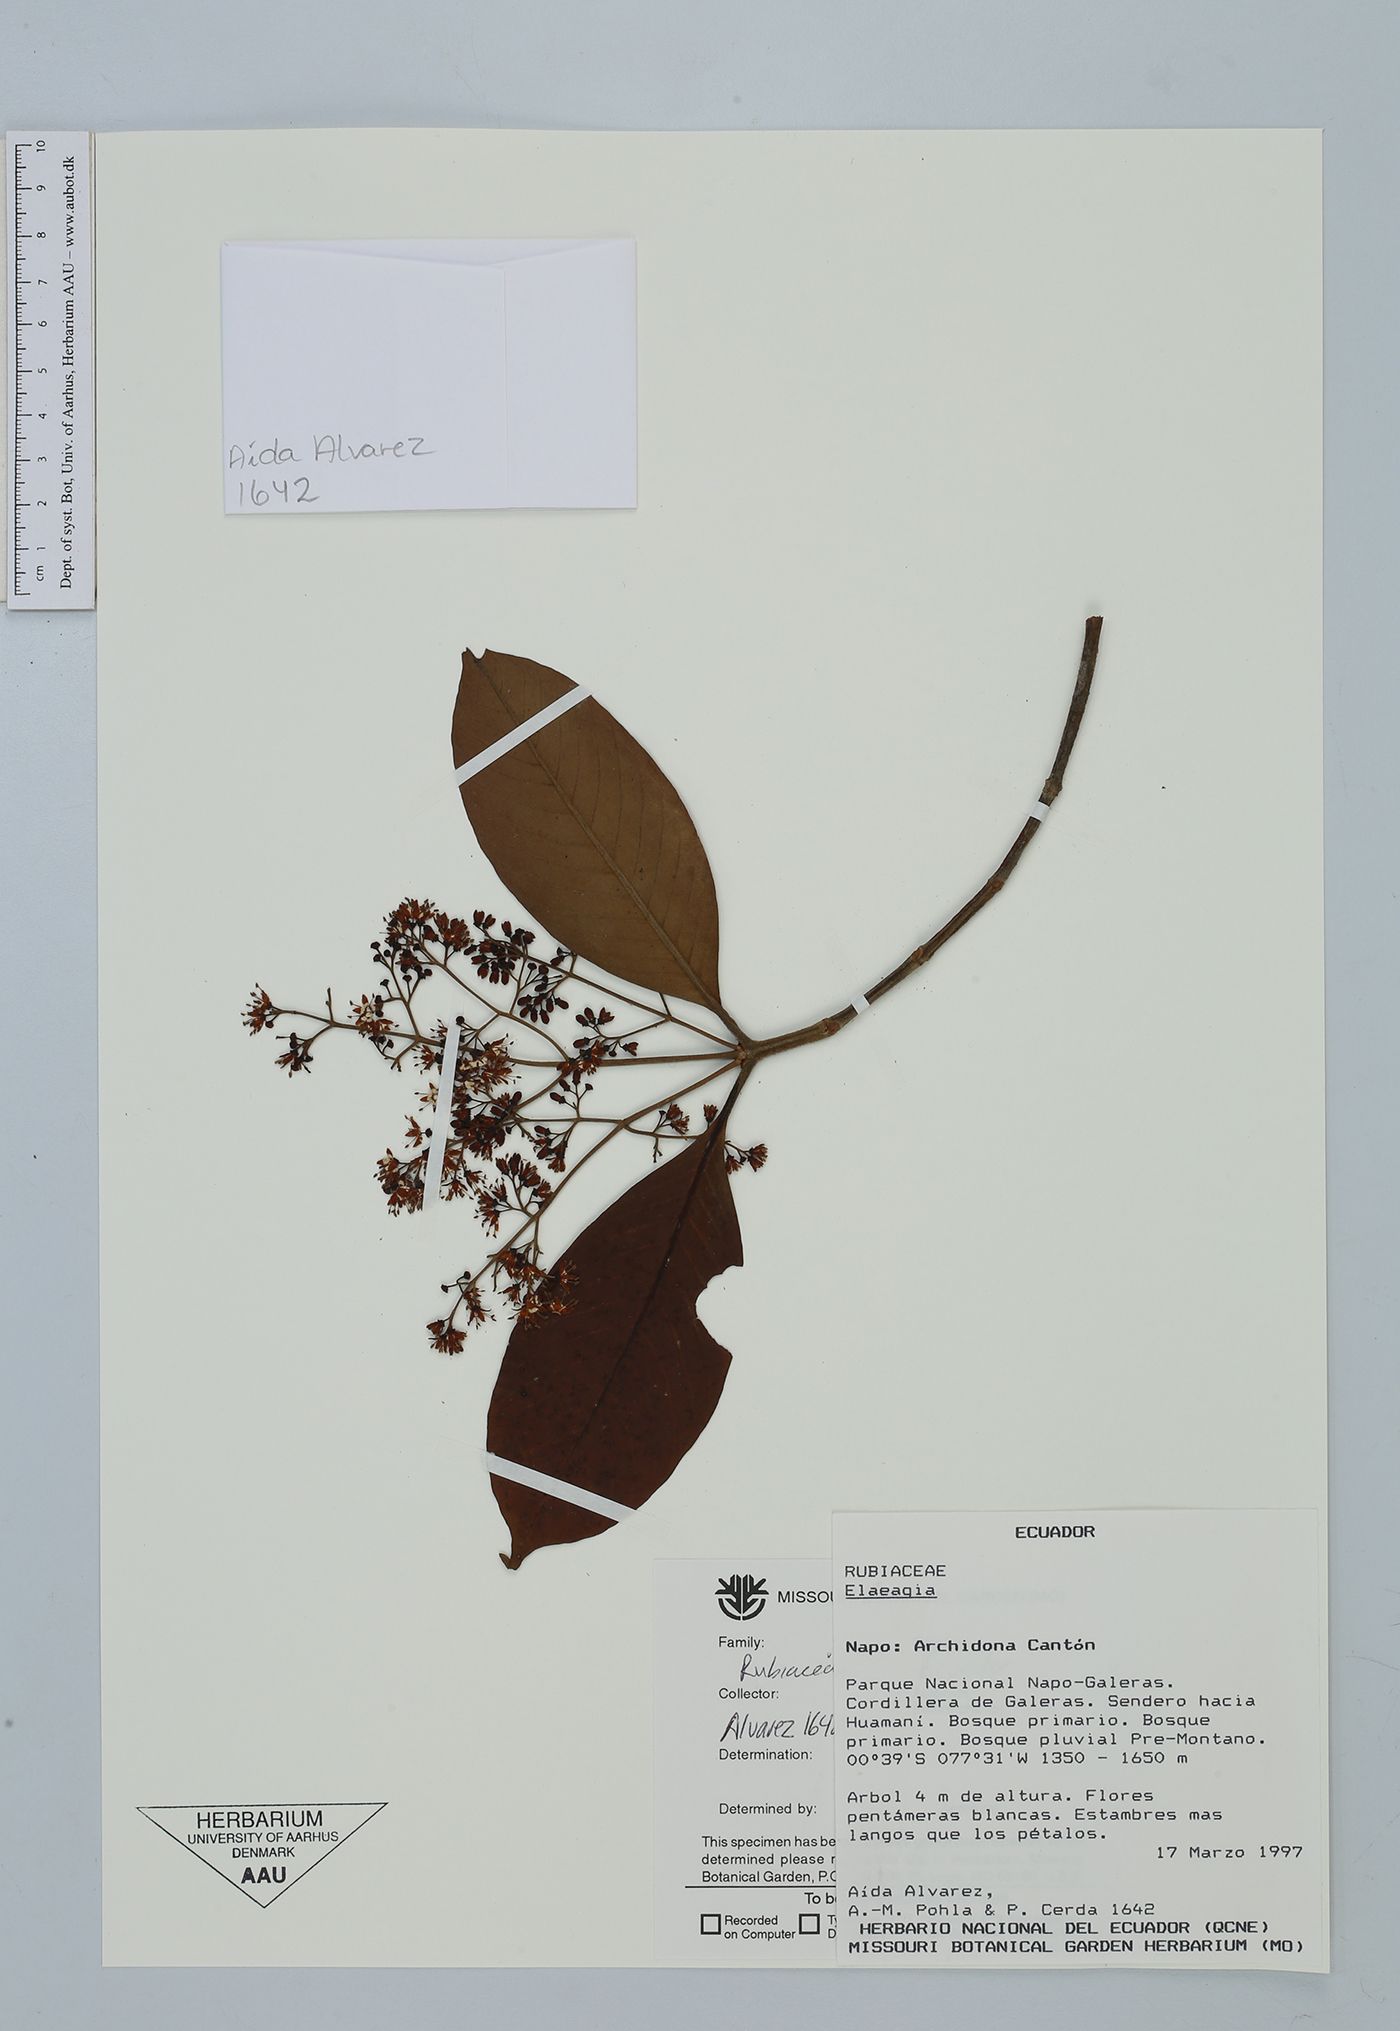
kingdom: Plantae
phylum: Tracheophyta
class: Magnoliopsida
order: Gentianales
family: Rubiaceae
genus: Elaeagia
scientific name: Elaeagia
